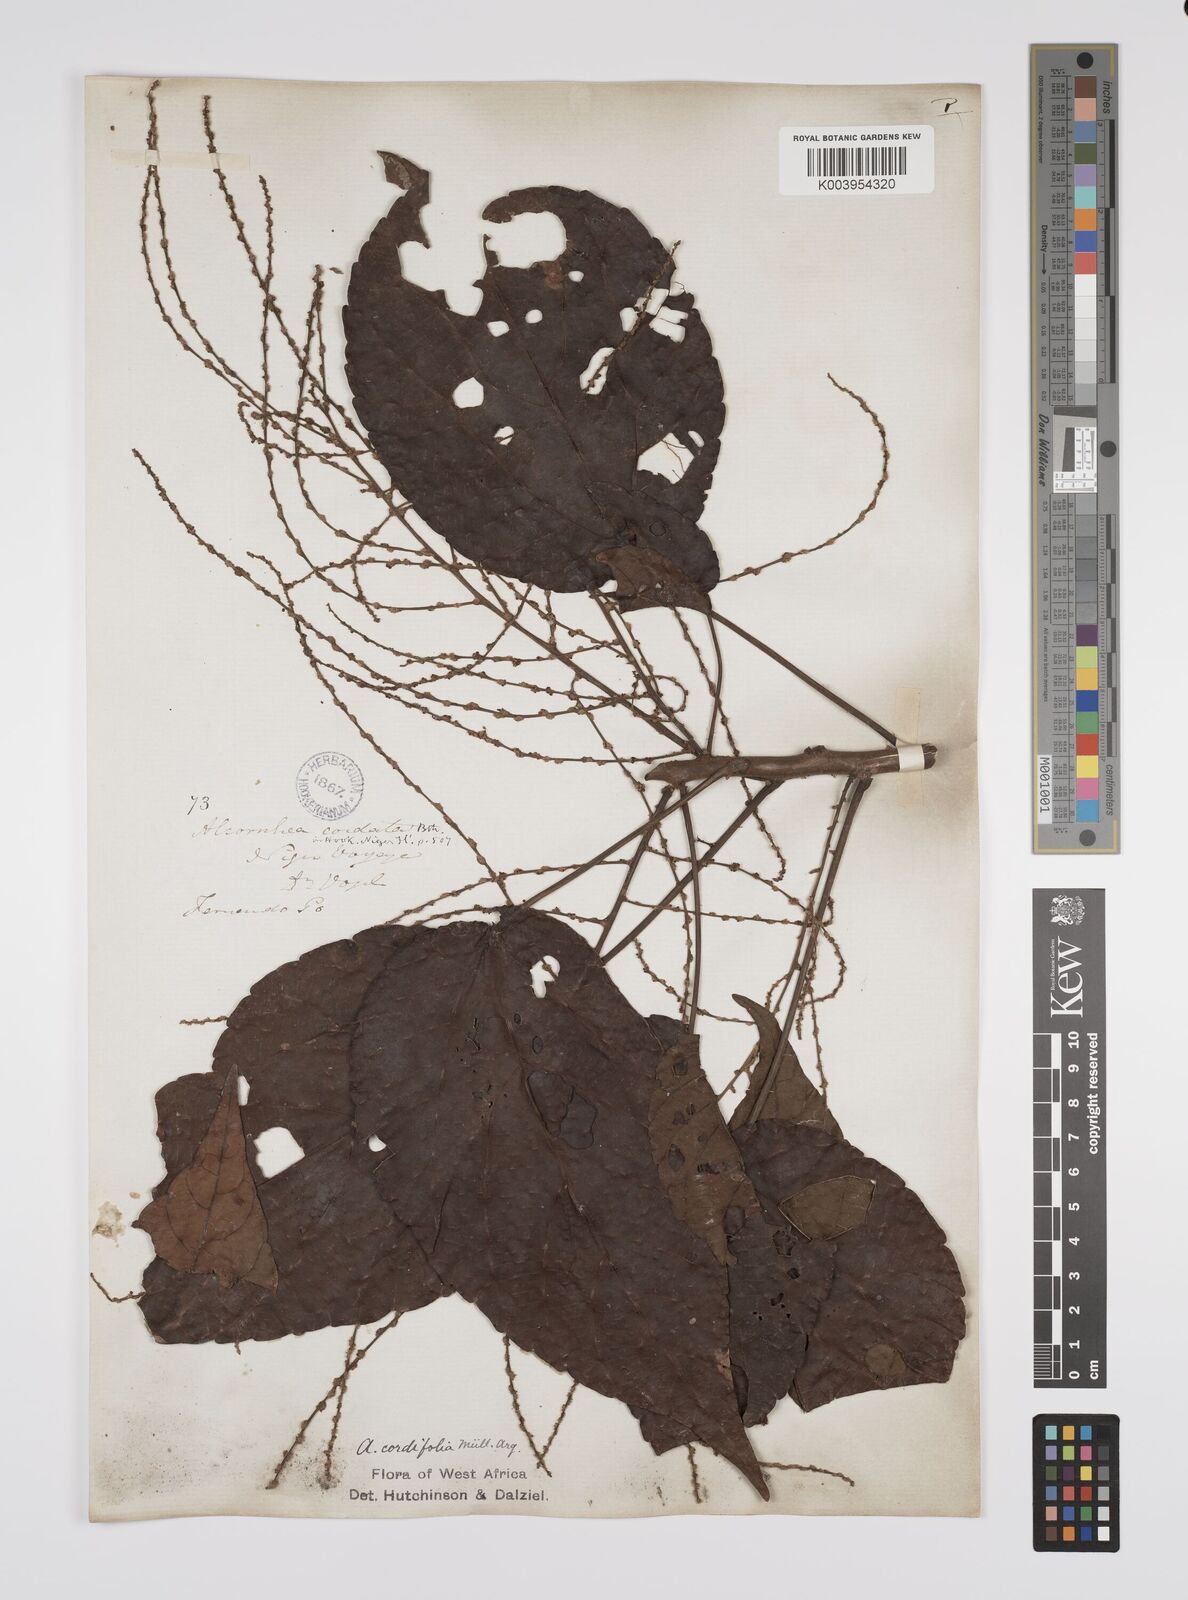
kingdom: Plantae
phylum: Tracheophyta
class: Magnoliopsida
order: Malpighiales
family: Euphorbiaceae
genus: Alchornea
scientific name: Alchornea cordifolia
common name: Christmasbush
